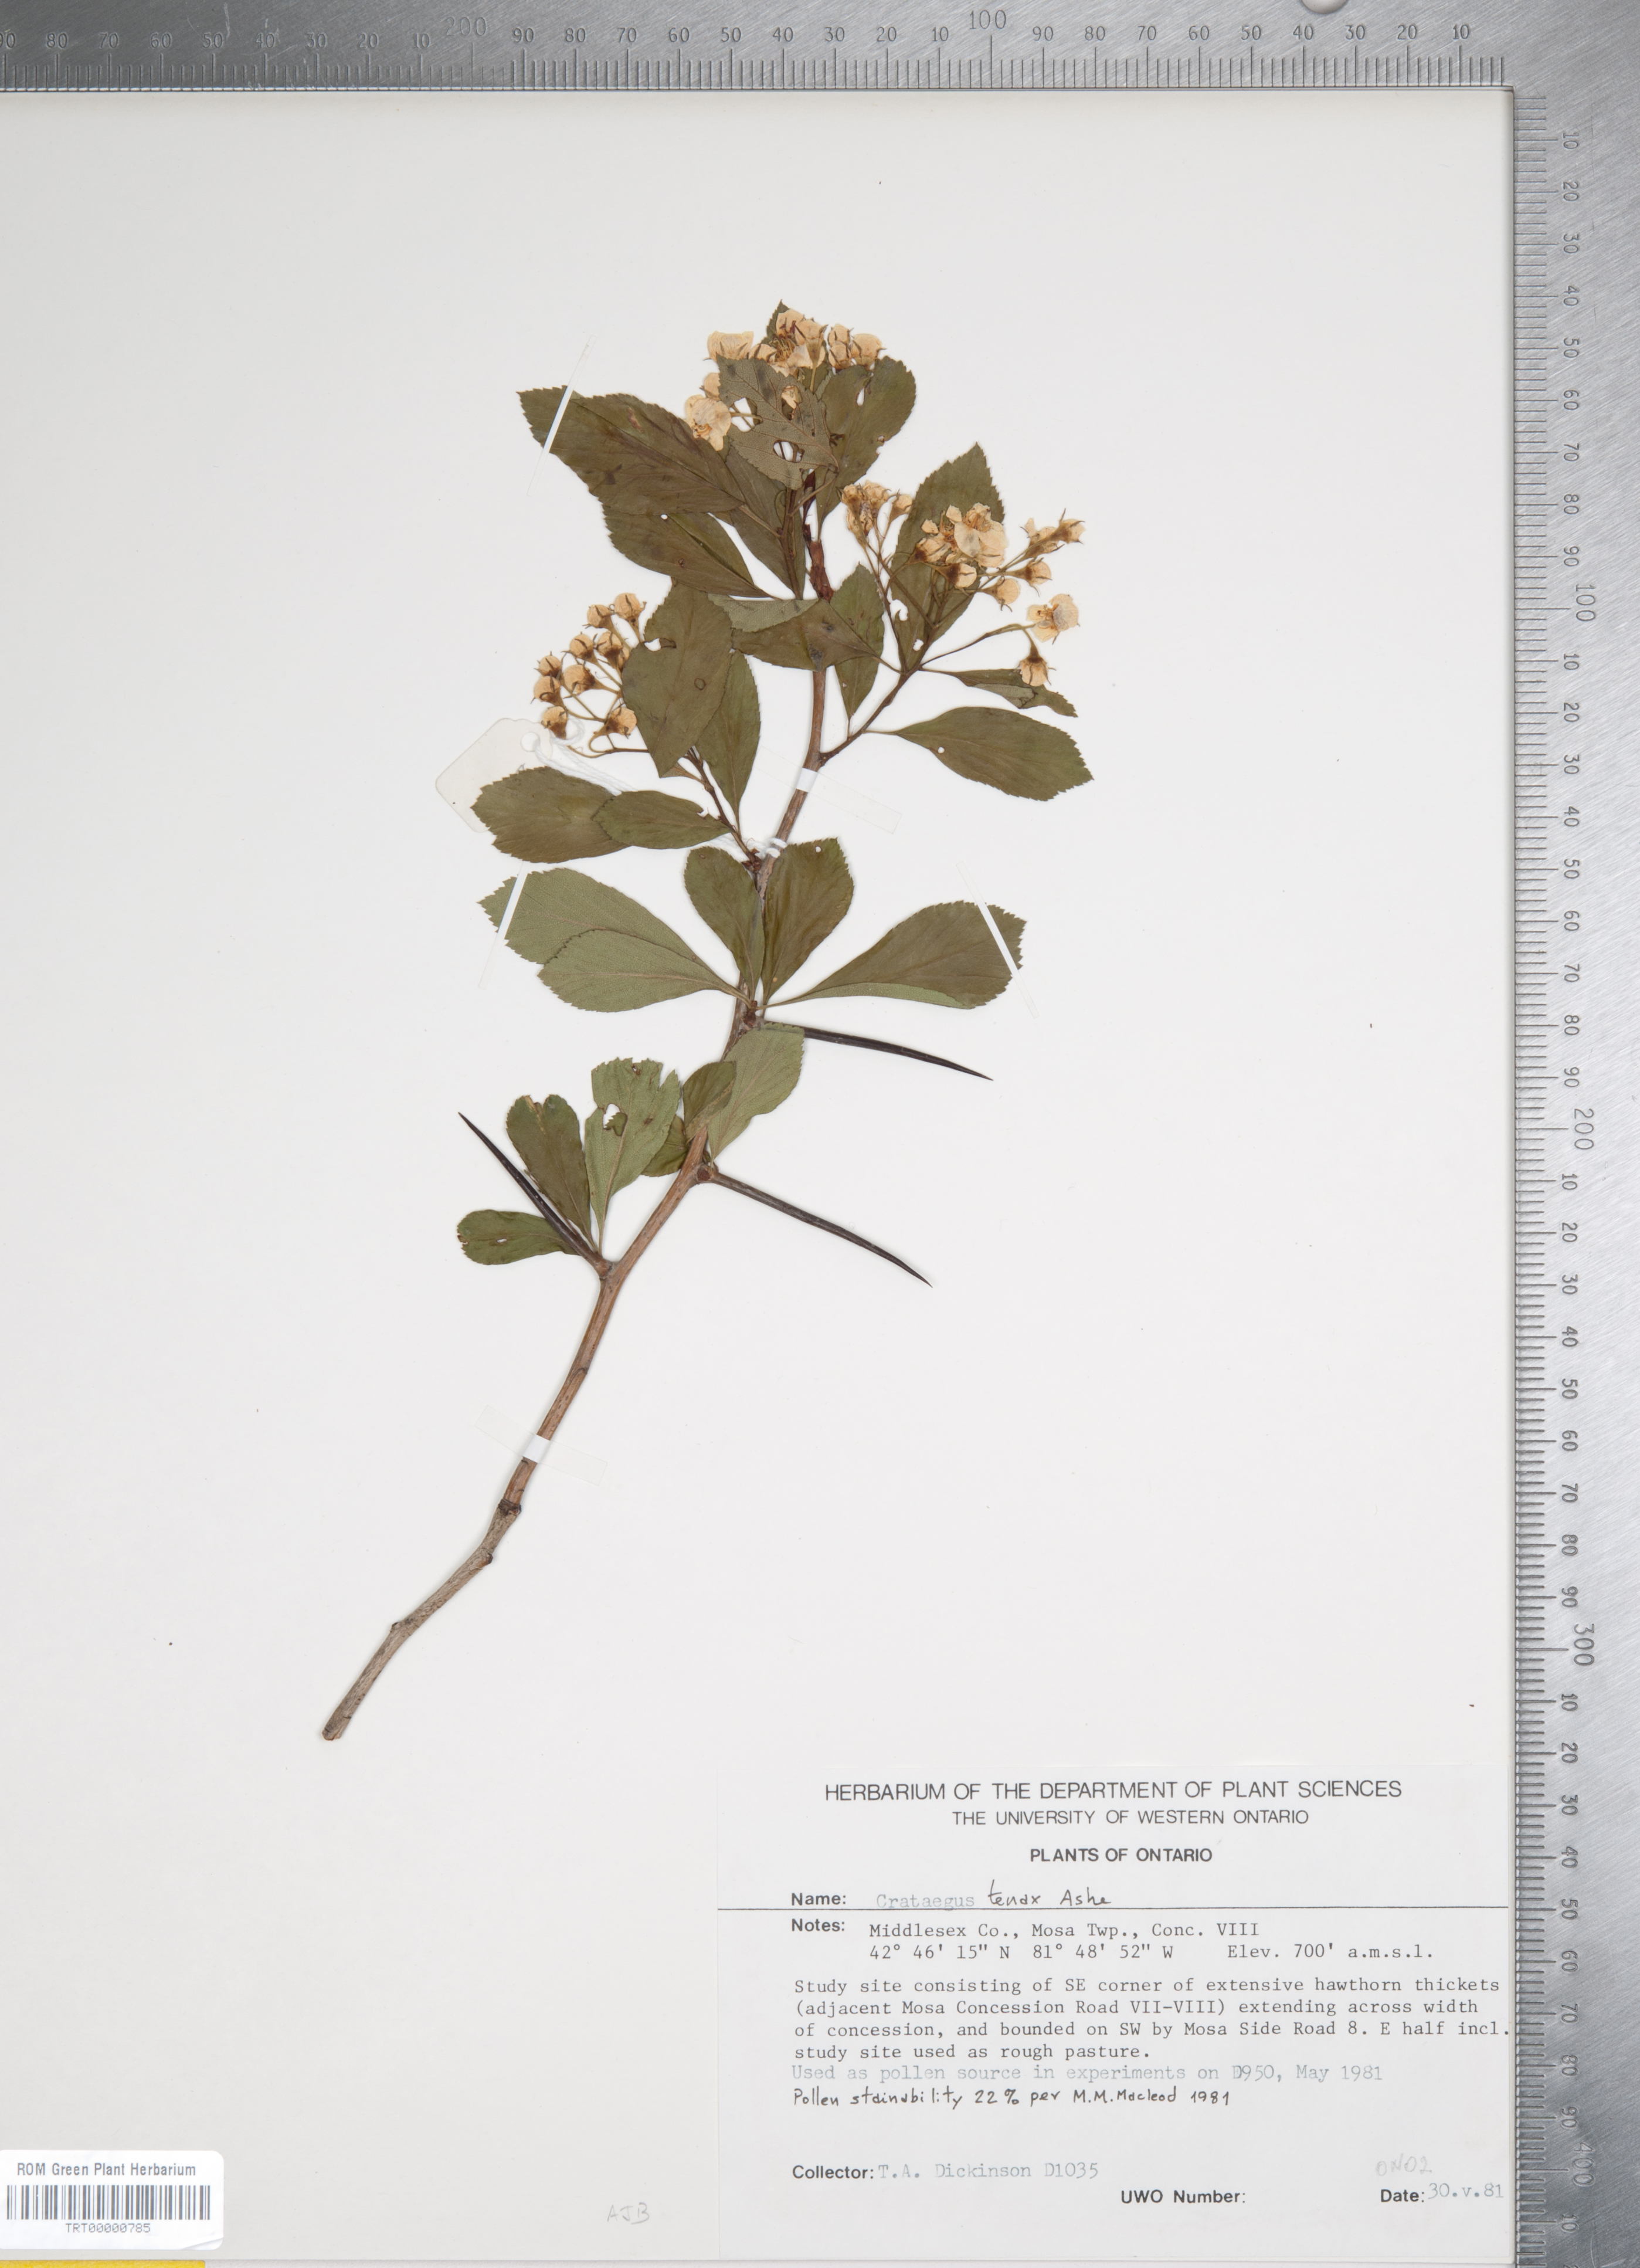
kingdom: Plantae
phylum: Tracheophyta
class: Magnoliopsida
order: Rosales
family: Rosaceae
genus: Crataegus
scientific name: Crataegus crus-galli
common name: Cockspurthorn
